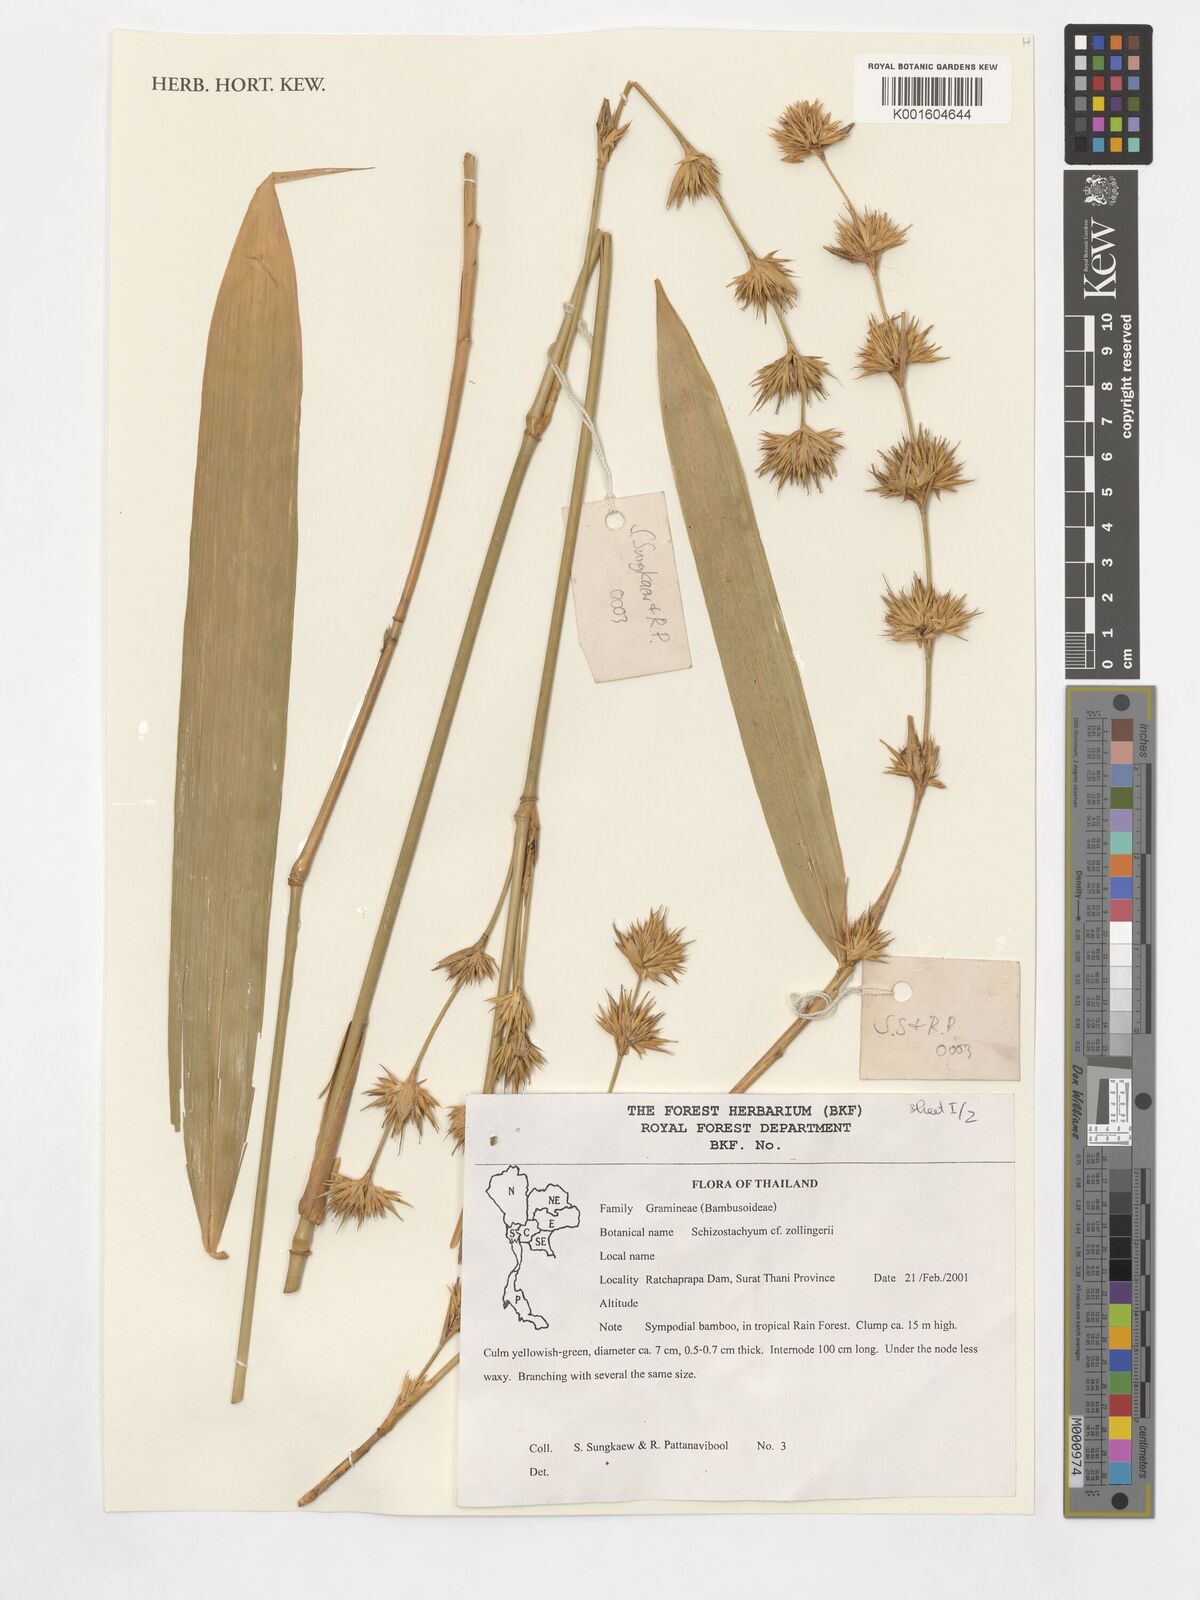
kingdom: Plantae
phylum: Tracheophyta
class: Liliopsida
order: Poales
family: Poaceae
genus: Schizostachyum
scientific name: Schizostachyum zollingeri
